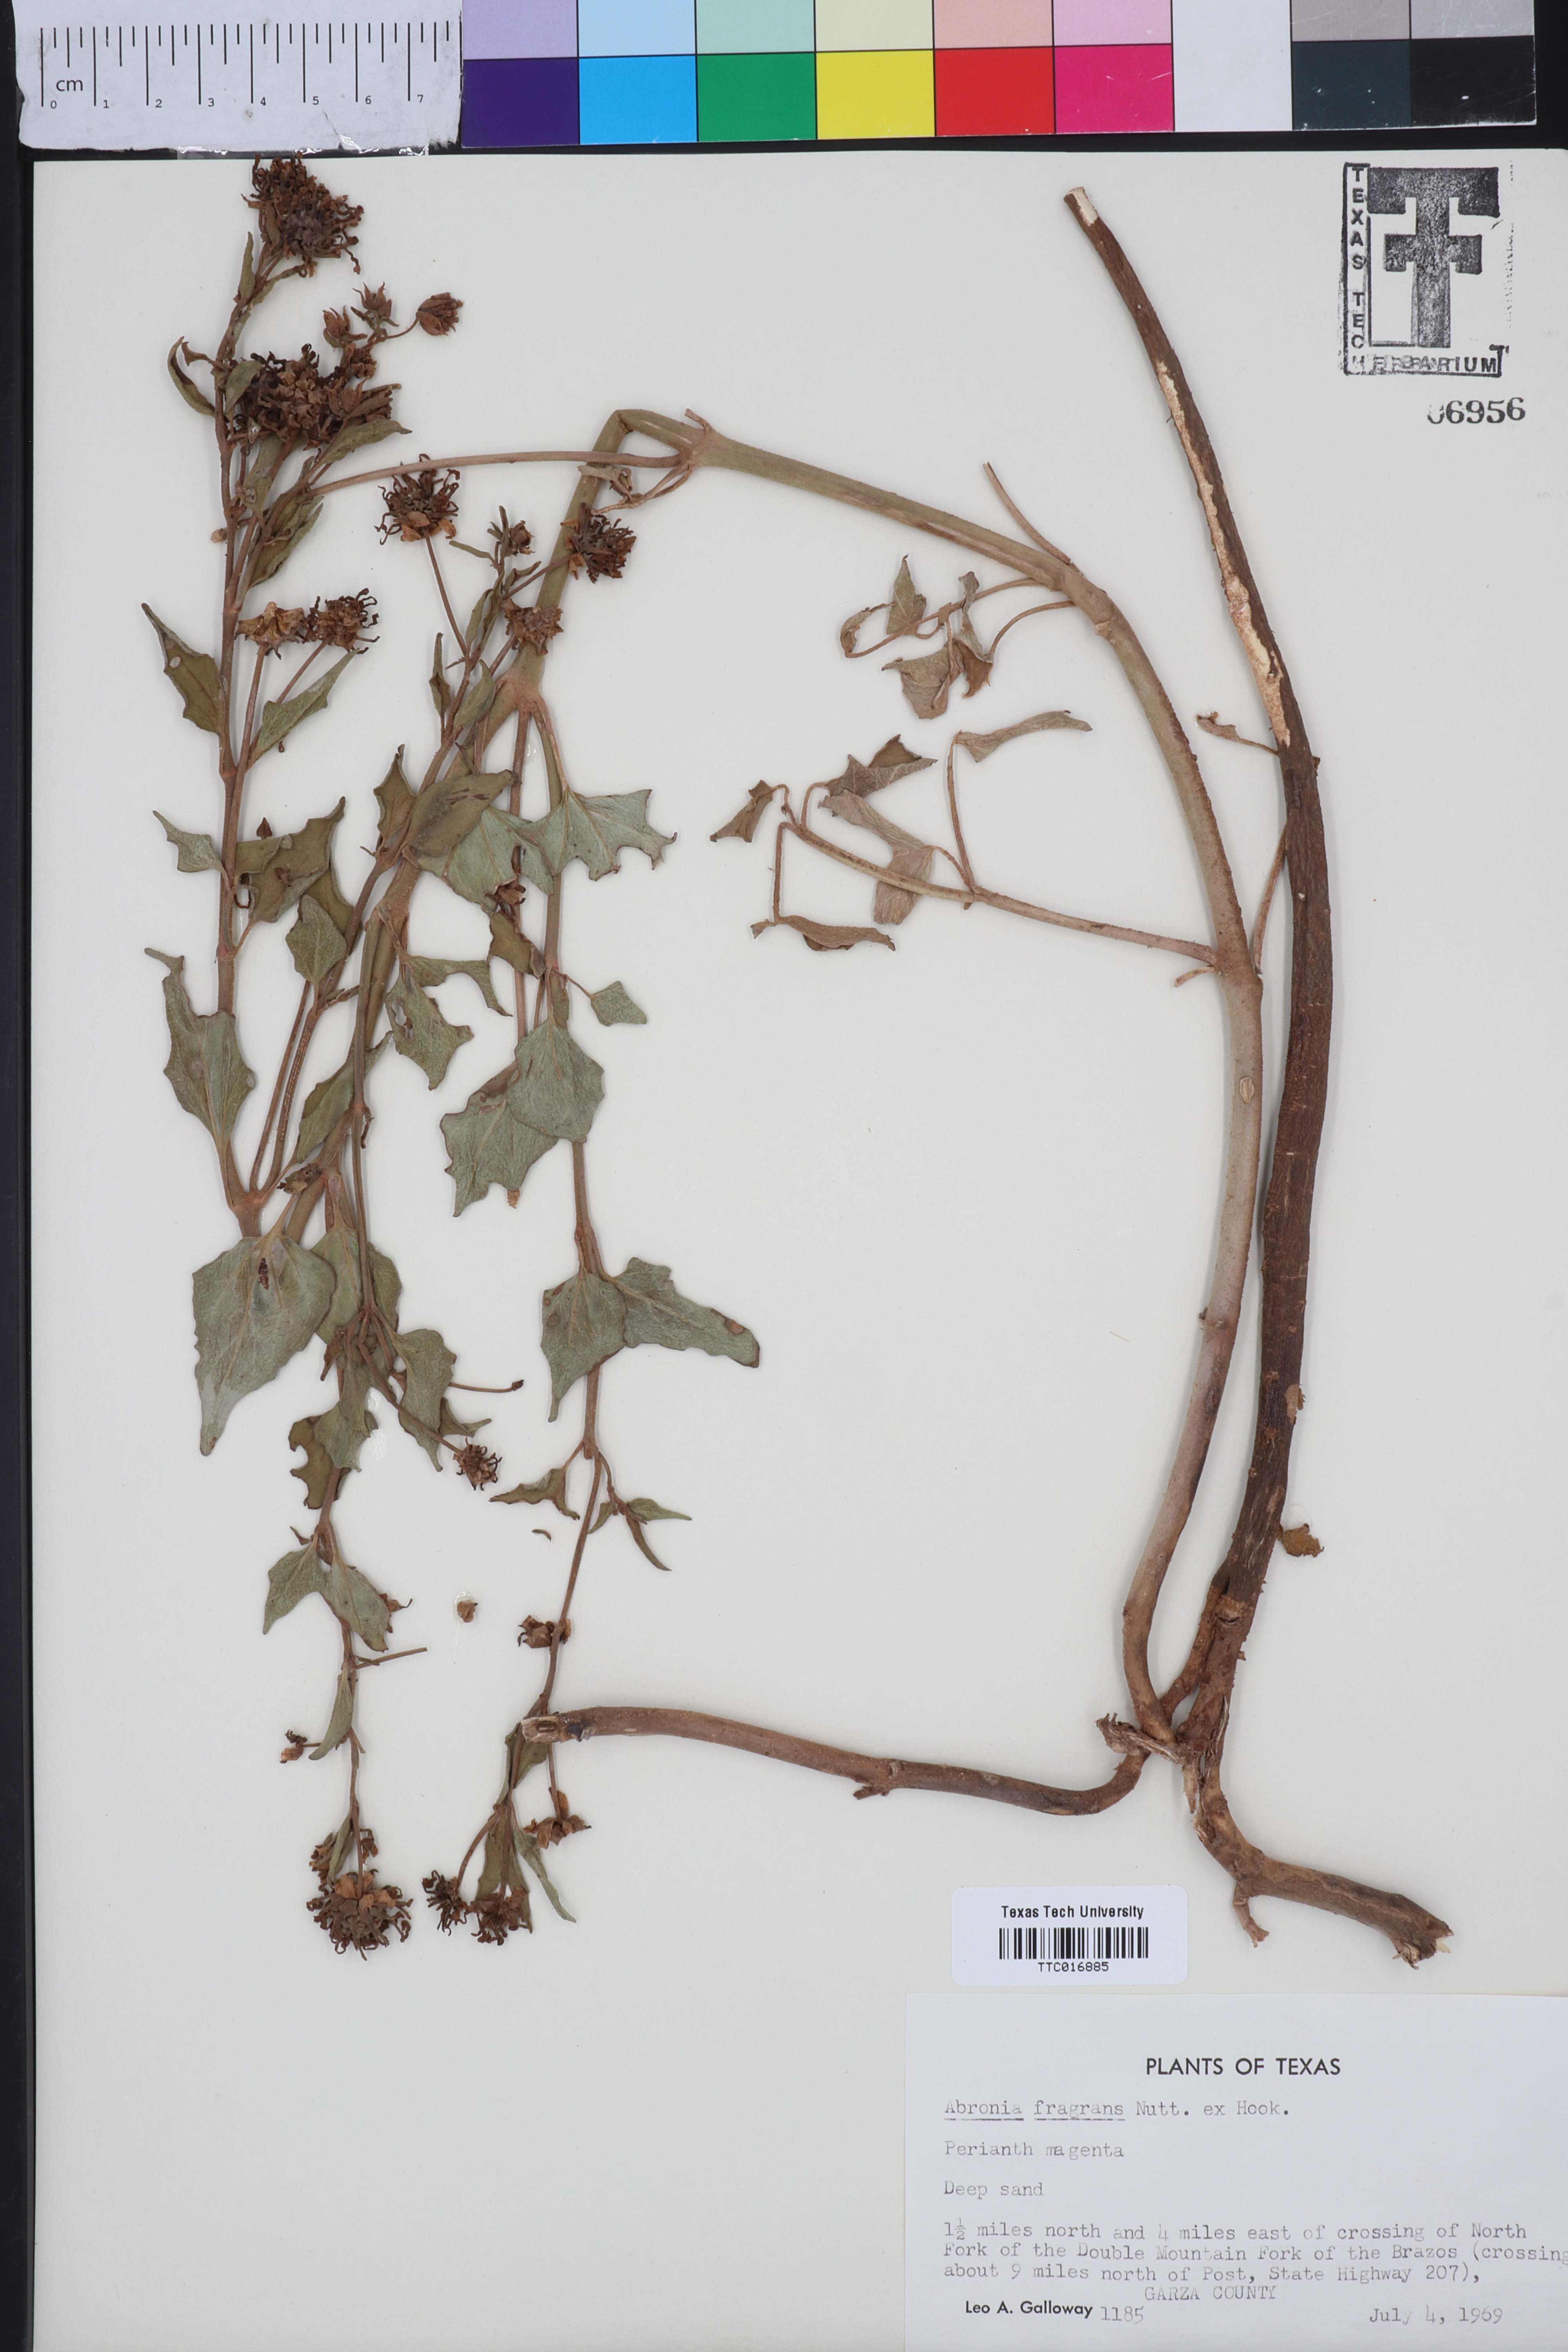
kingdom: Plantae
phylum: Tracheophyta
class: Magnoliopsida
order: Caryophyllales
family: Nyctaginaceae
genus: Abronia
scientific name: Abronia fragrans
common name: Fragrant sand-verbena
